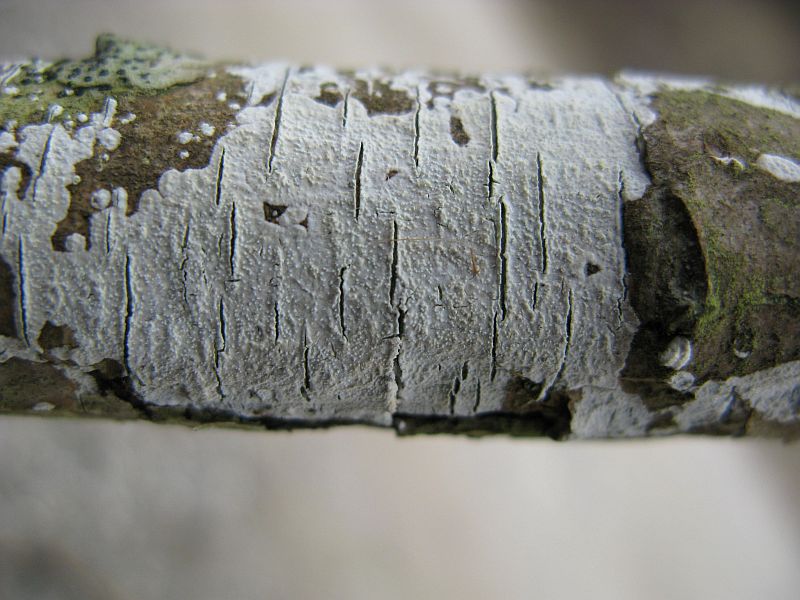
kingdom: Fungi
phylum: Basidiomycota
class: Agaricomycetes
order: Corticiales
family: Corticiaceae
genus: Lyomyces
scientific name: Lyomyces crustosus
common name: vortet hyldehinde
